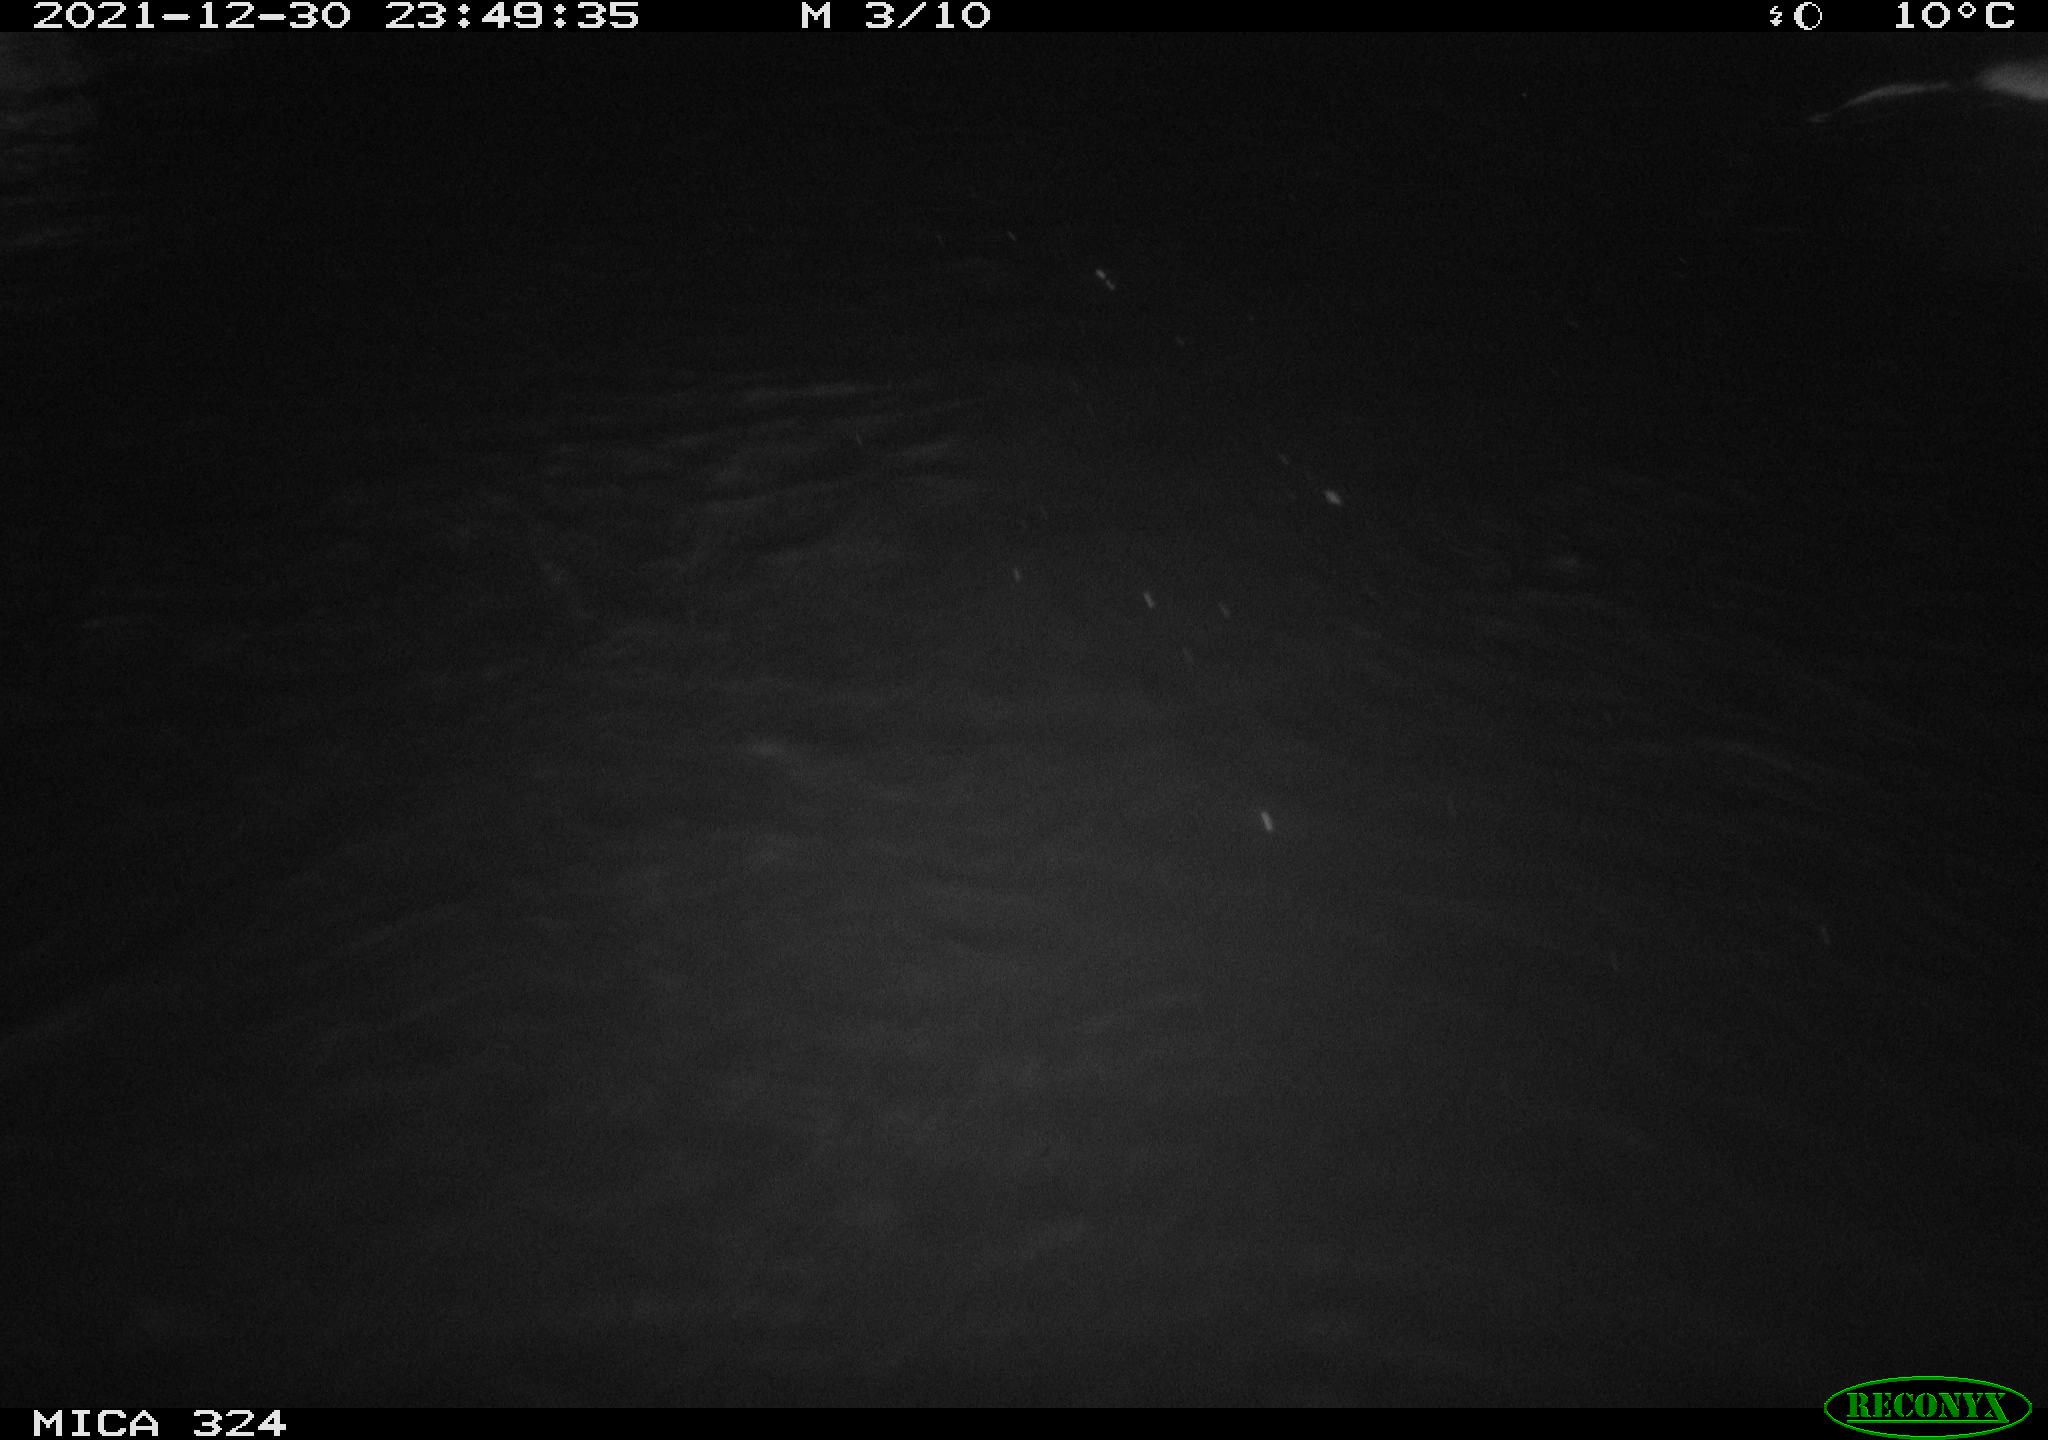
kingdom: Animalia
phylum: Chordata
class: Mammalia
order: Rodentia
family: Cricetidae
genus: Ondatra
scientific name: Ondatra zibethicus
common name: Muskrat
